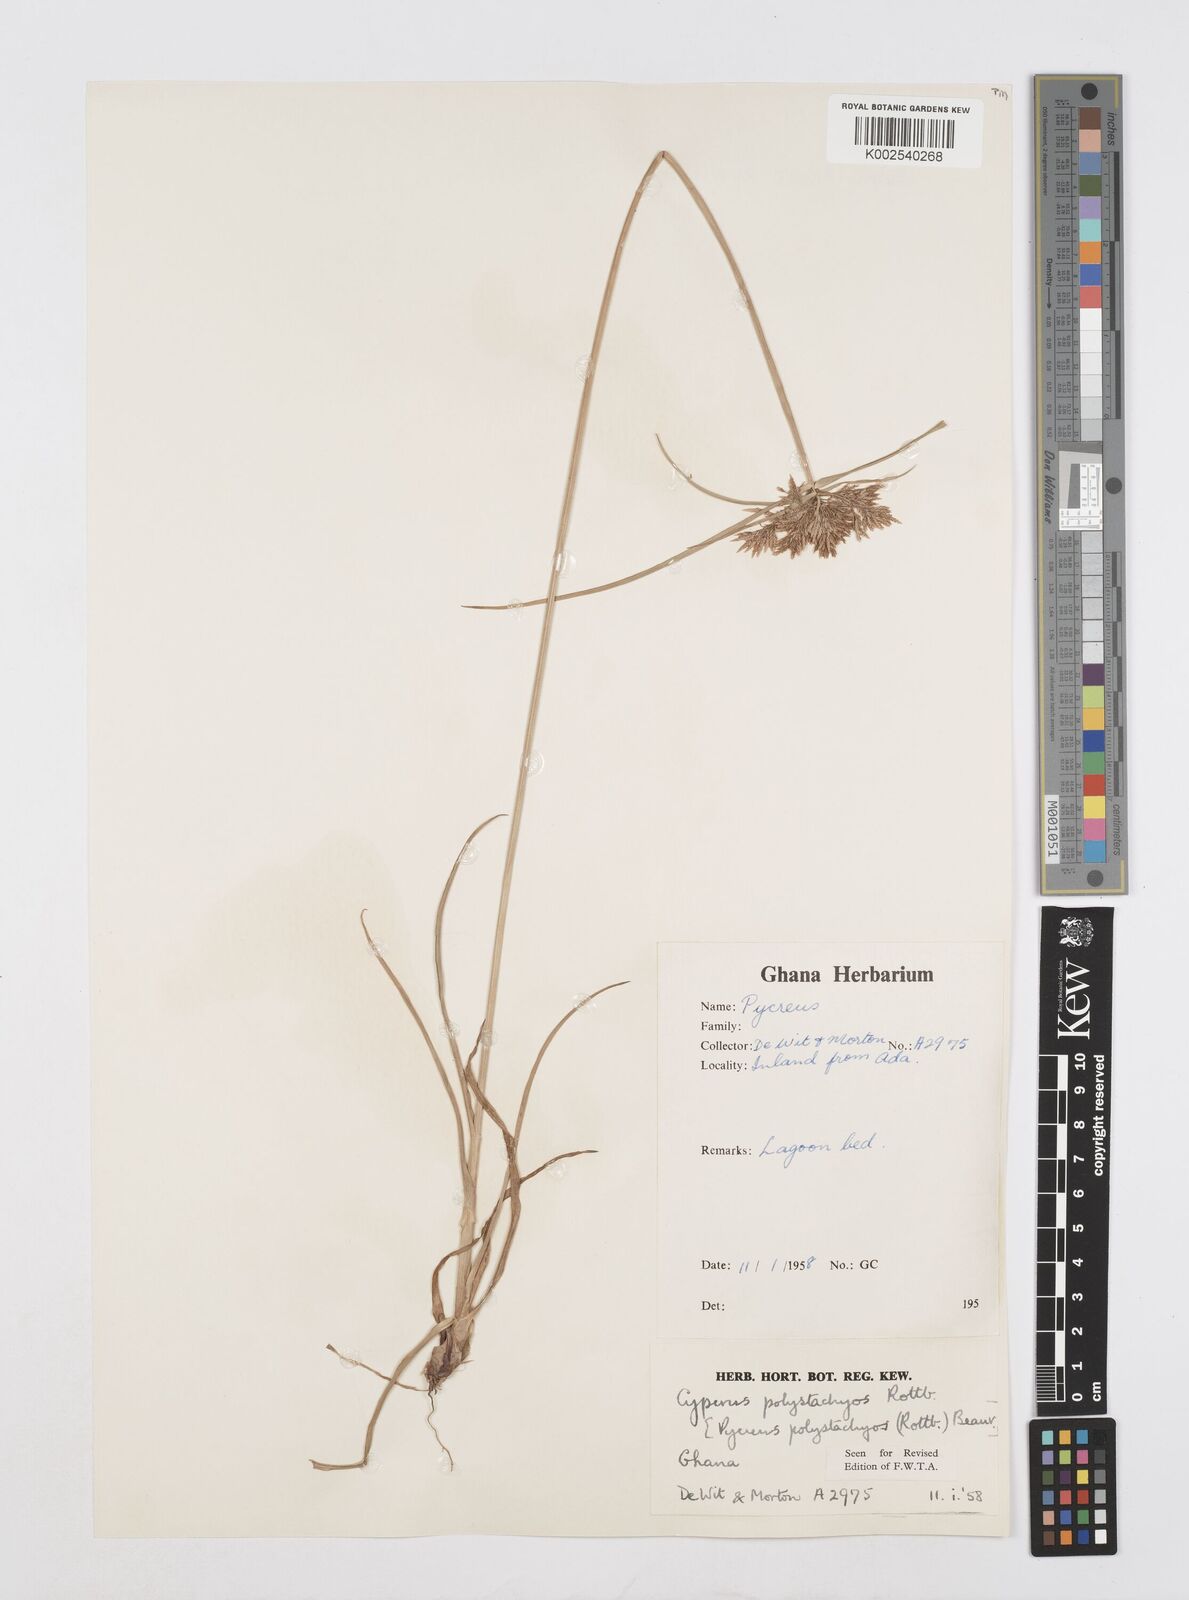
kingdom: Plantae
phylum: Tracheophyta
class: Liliopsida
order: Poales
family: Cyperaceae
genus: Cyperus
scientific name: Cyperus polystachyos
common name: Bunchy flat sedge
